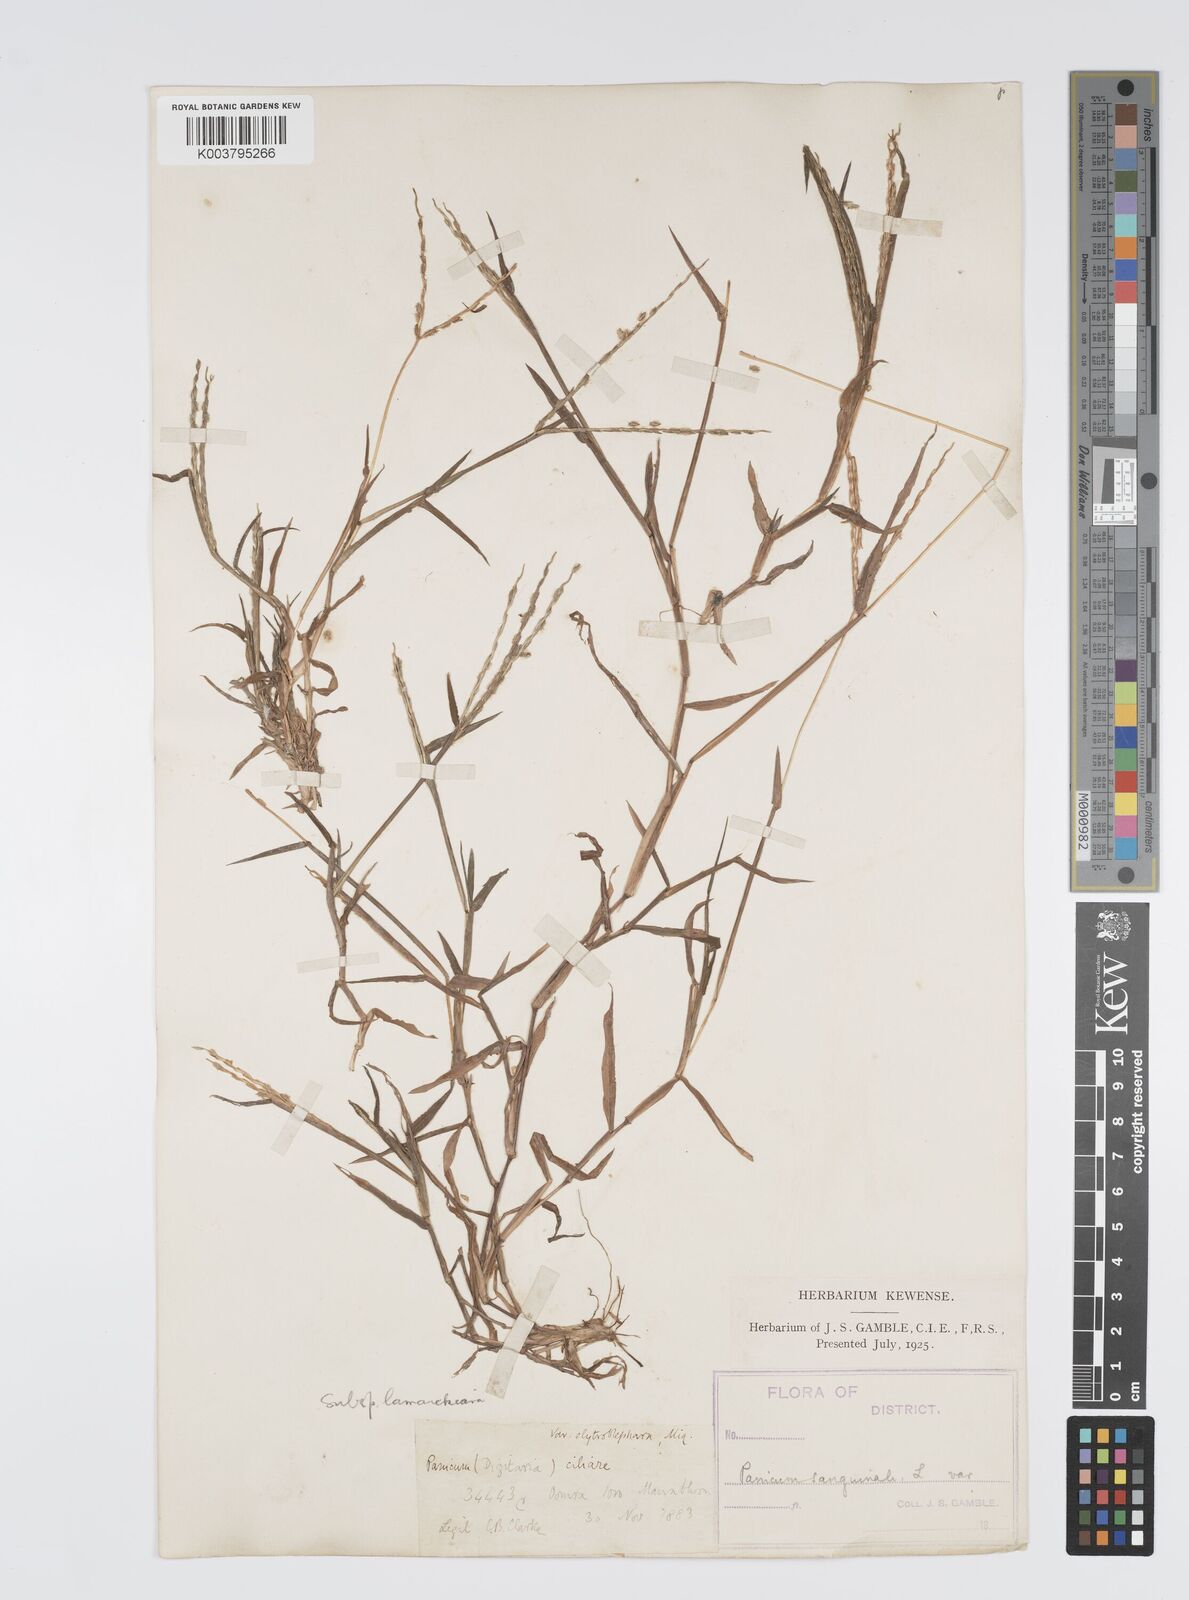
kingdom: Plantae
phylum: Tracheophyta
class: Liliopsida
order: Poales
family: Poaceae
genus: Digitaria
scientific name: Digitaria ciliaris
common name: Tropical finger-grass
